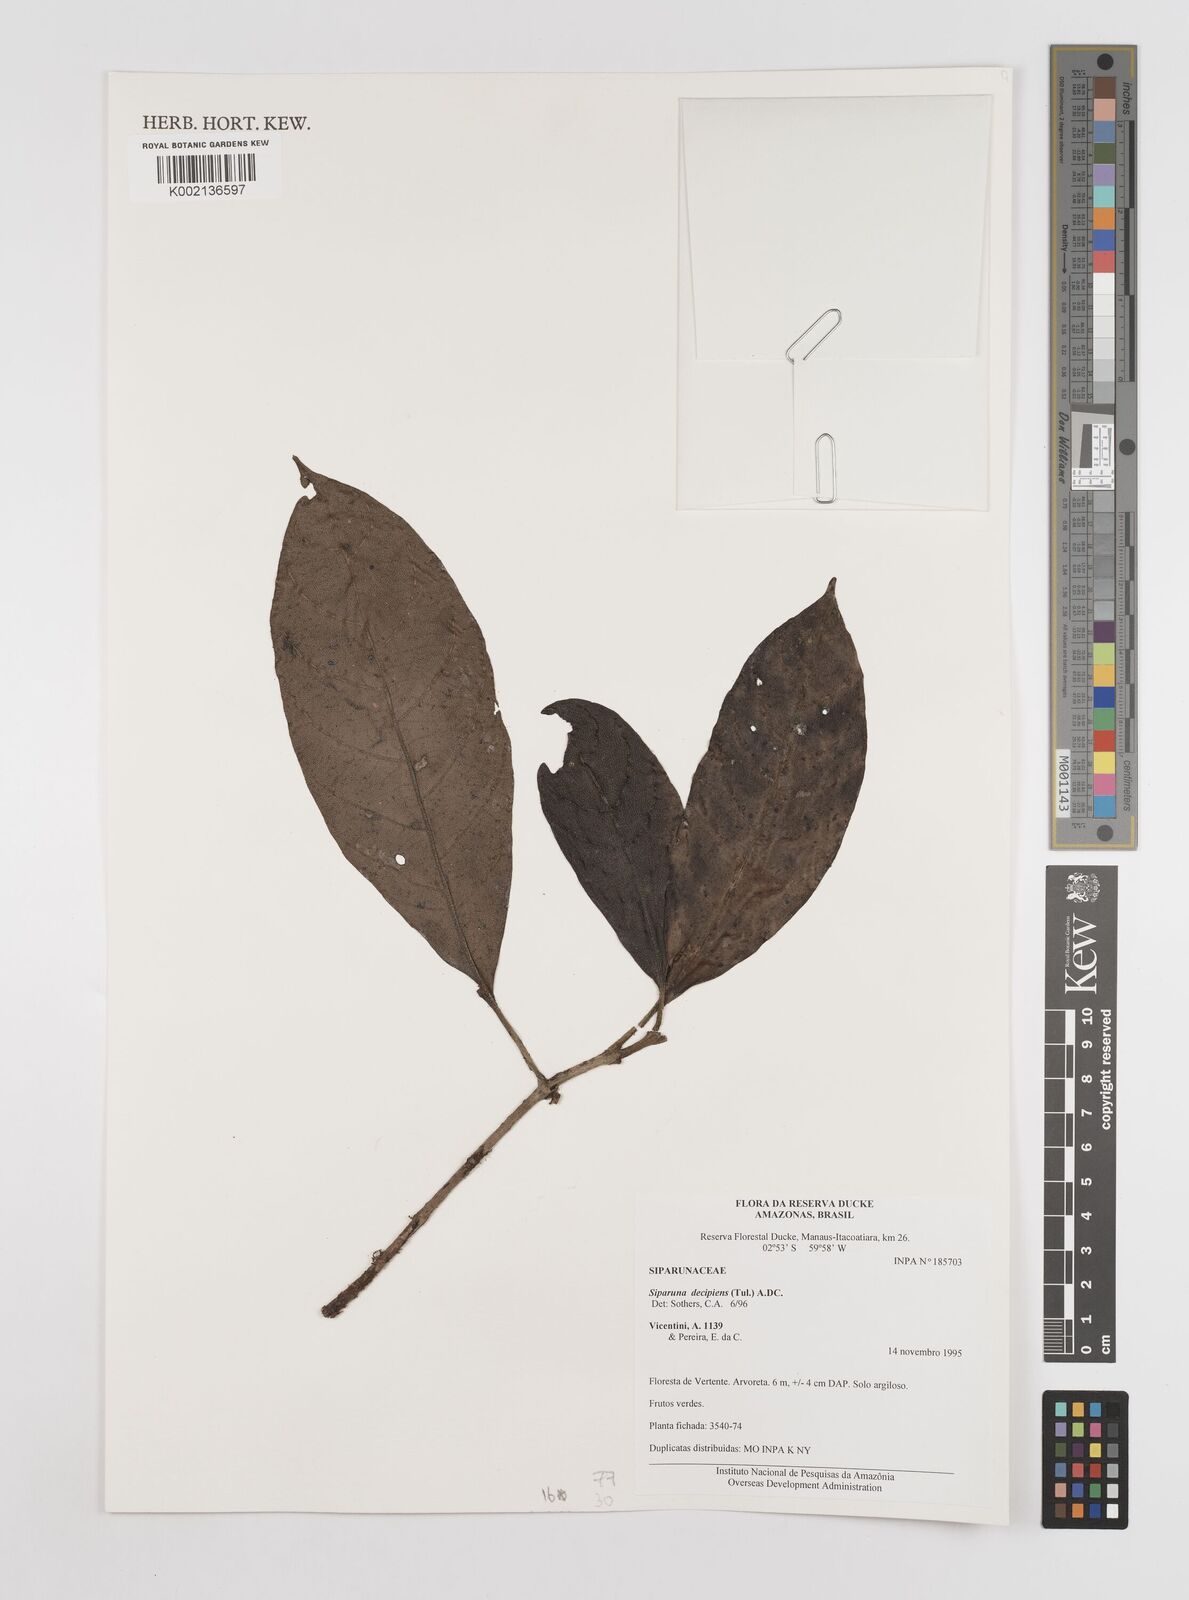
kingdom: Plantae
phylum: Tracheophyta
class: Magnoliopsida
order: Laurales
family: Siparunaceae
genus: Siparuna
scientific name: Siparuna decipiens
